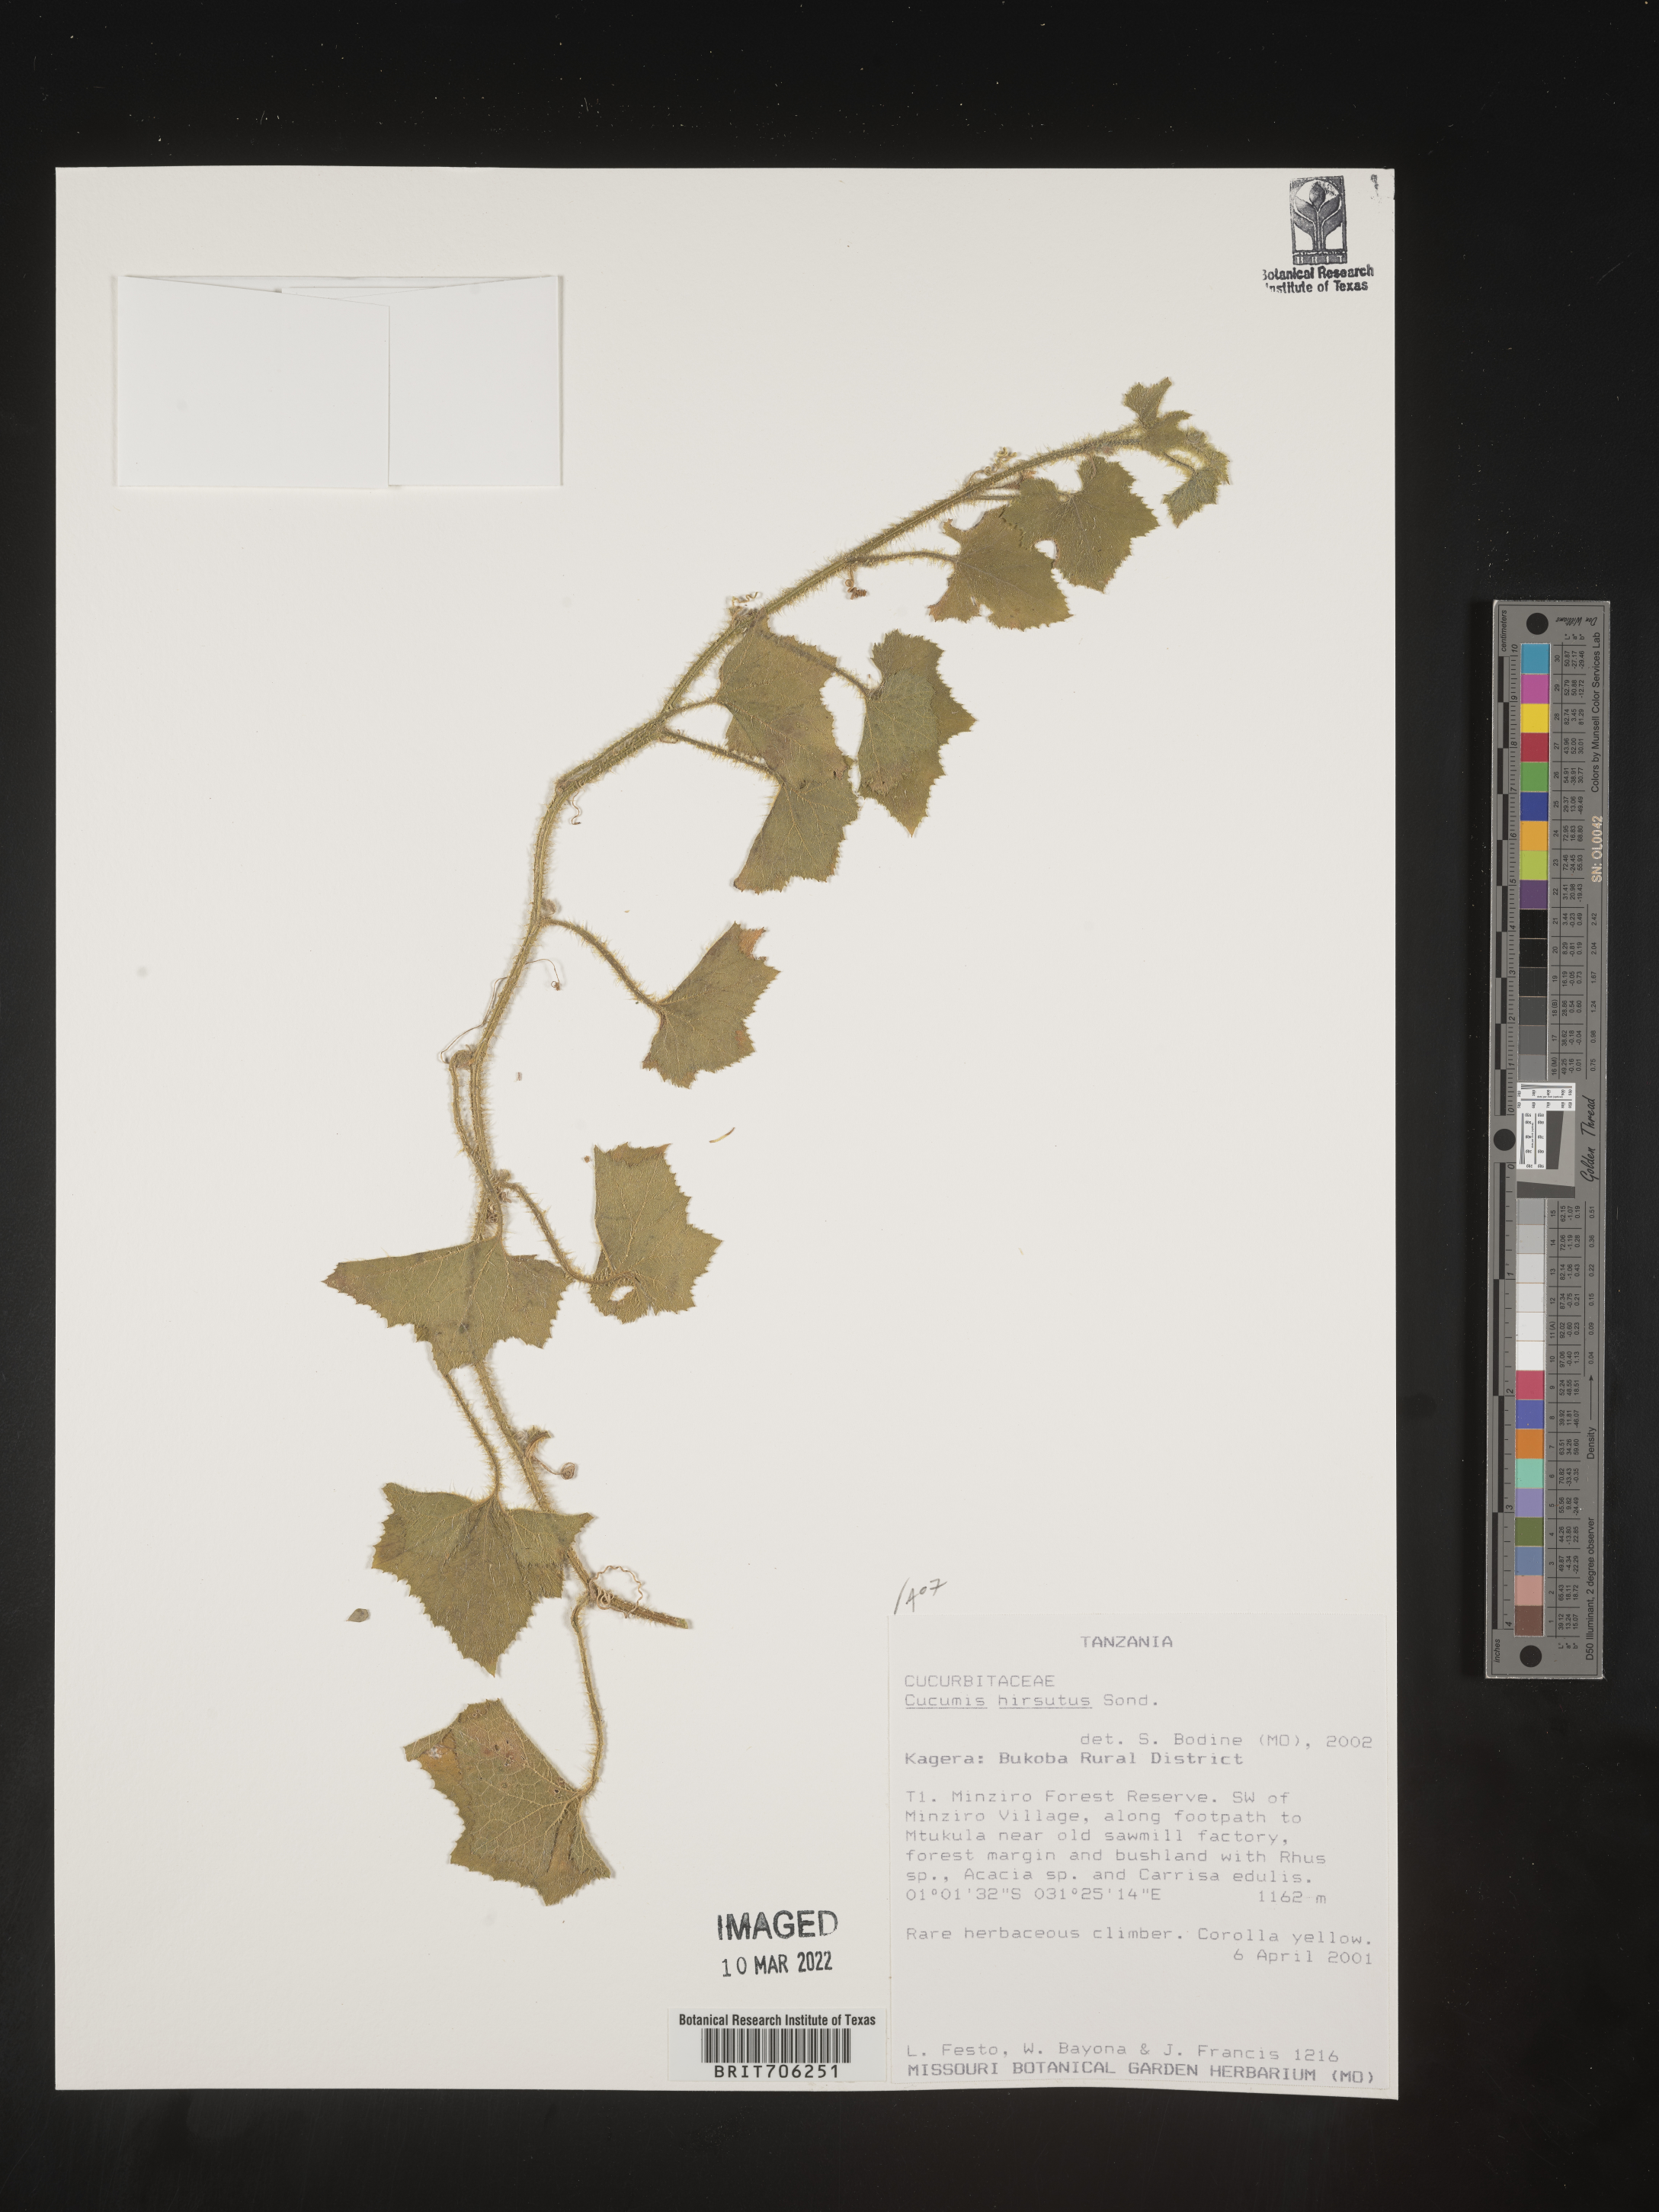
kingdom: Plantae
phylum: Tracheophyta
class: Magnoliopsida
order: Cucurbitales
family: Cucurbitaceae
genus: Cucumis
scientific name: Cucumis
